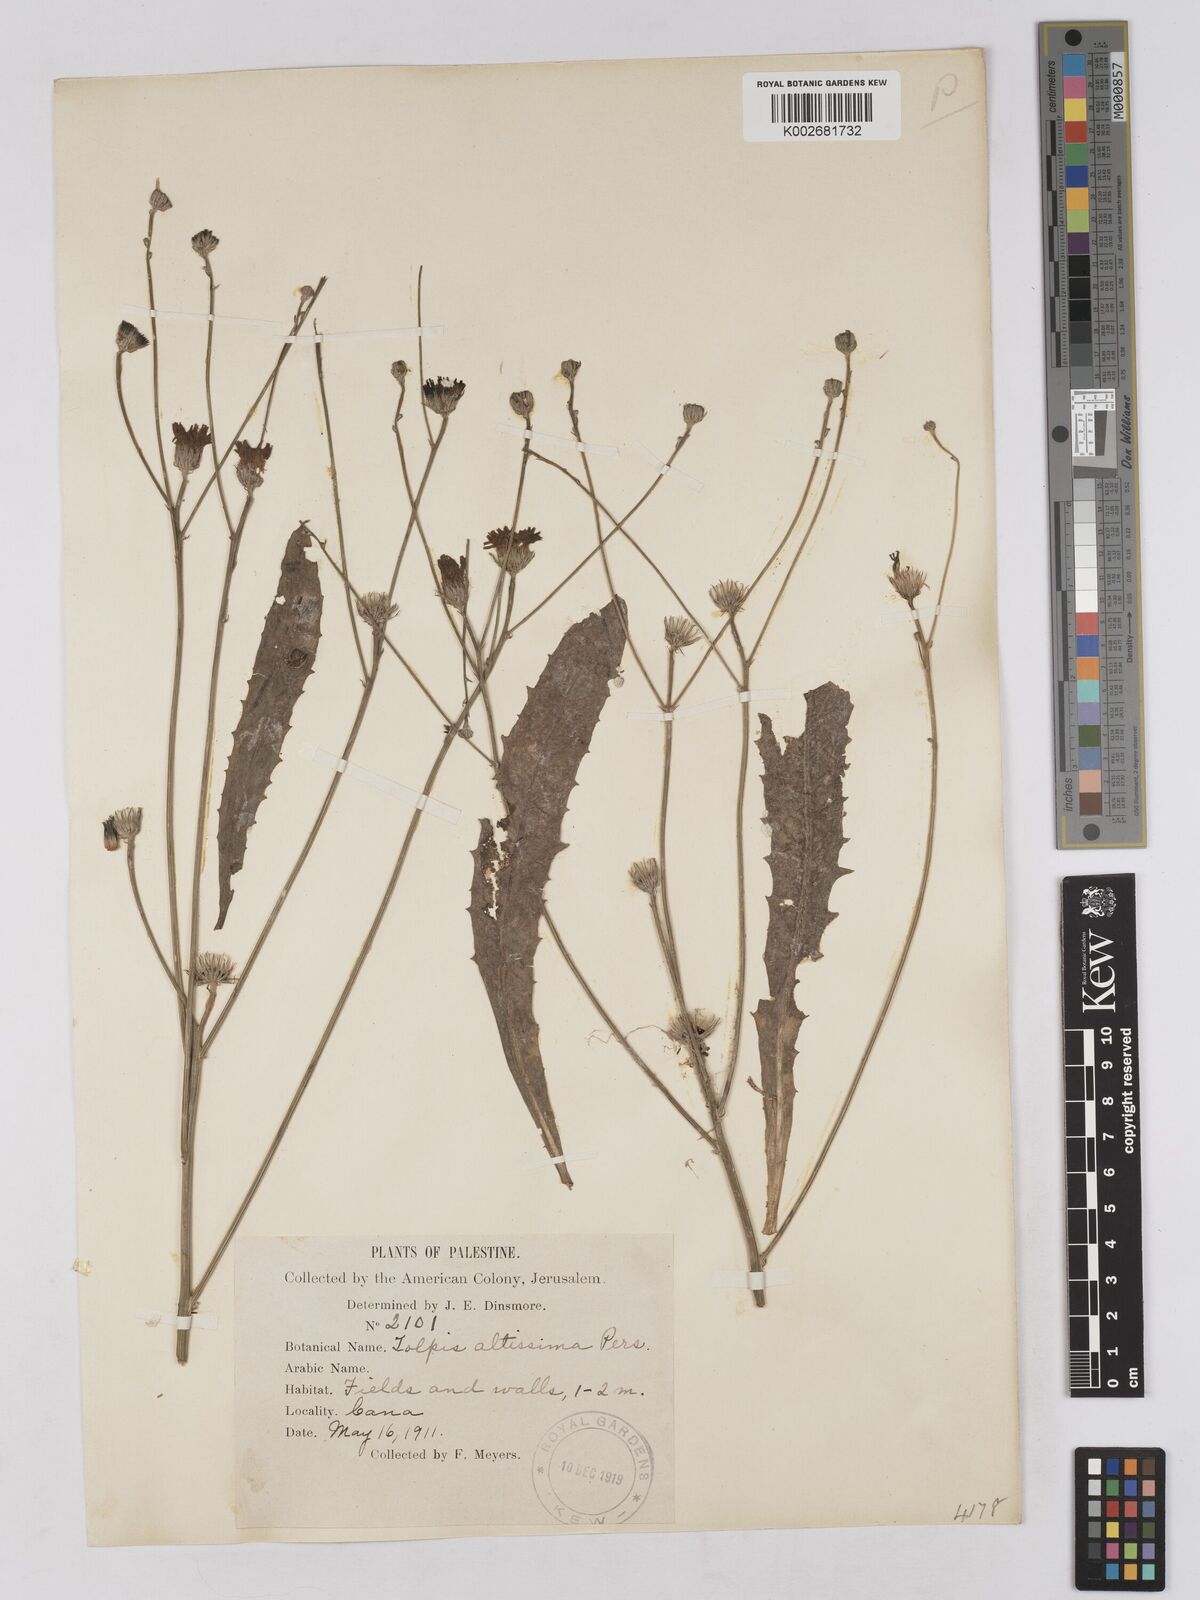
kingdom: Plantae
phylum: Tracheophyta
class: Magnoliopsida
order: Asterales
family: Asteraceae
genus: Tolpis
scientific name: Tolpis virgata
